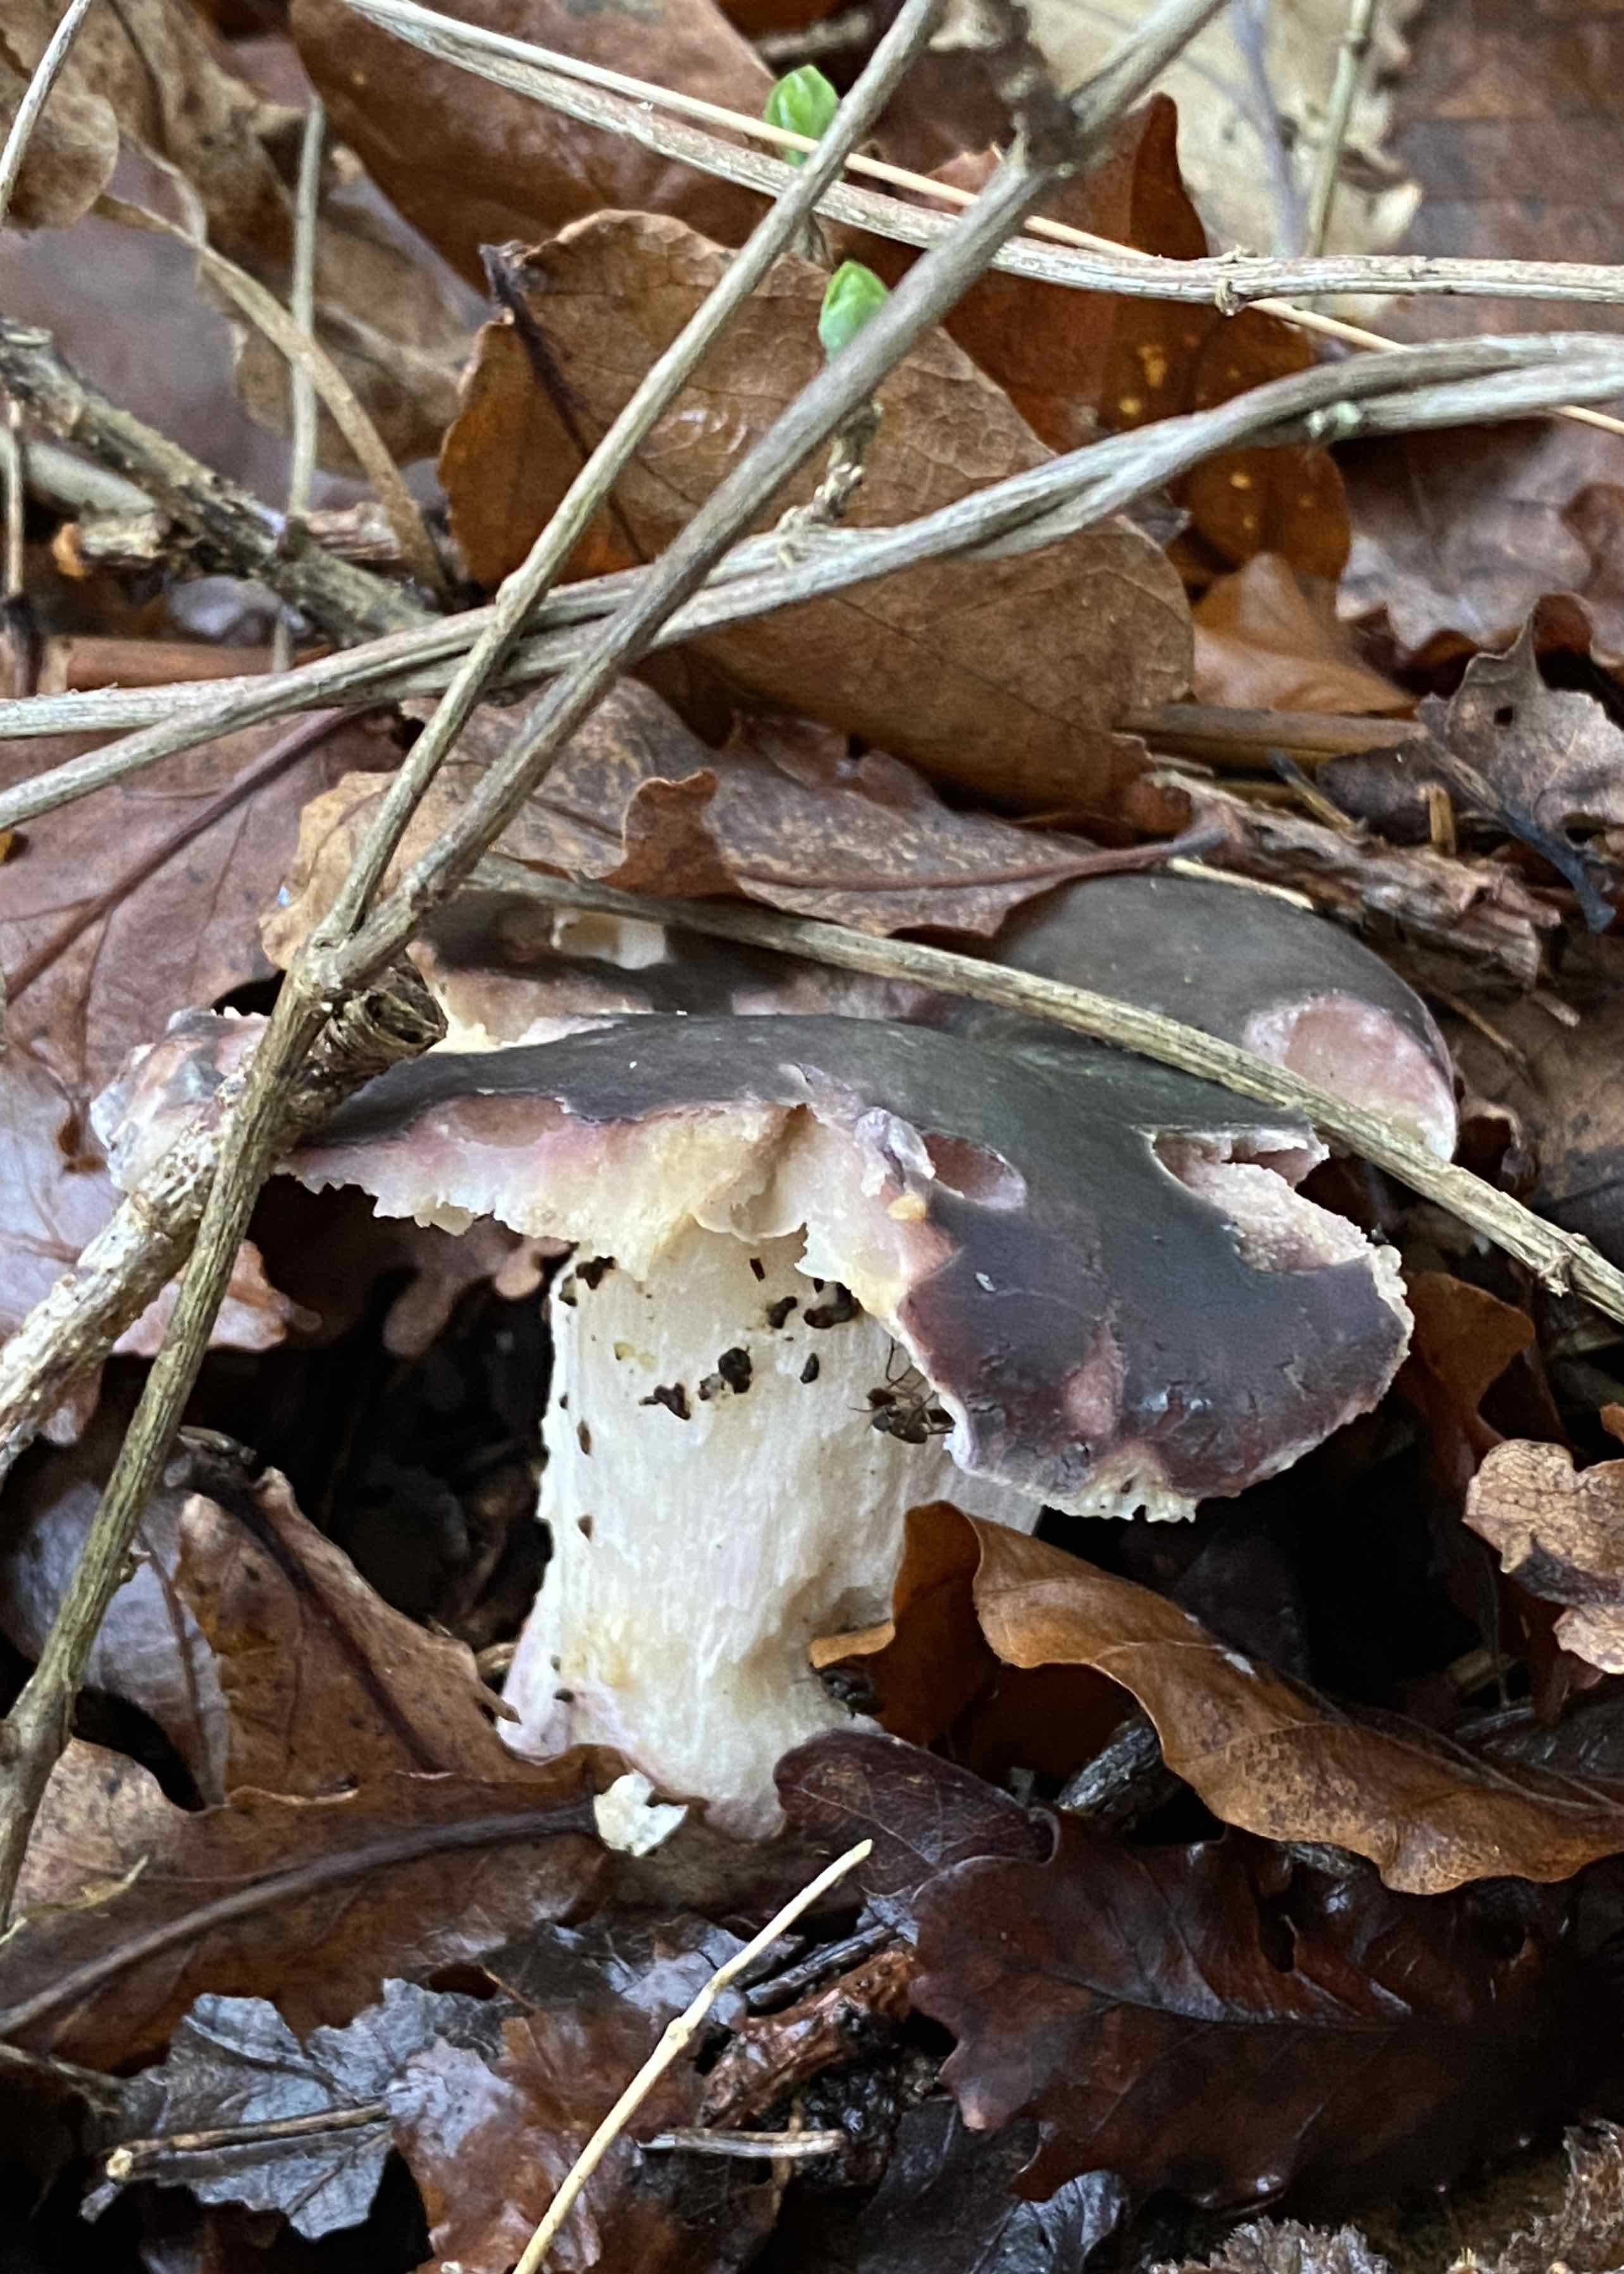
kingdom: Fungi
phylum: Basidiomycota
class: Agaricomycetes
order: Russulales
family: Russulaceae
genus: Russula
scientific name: Russula
